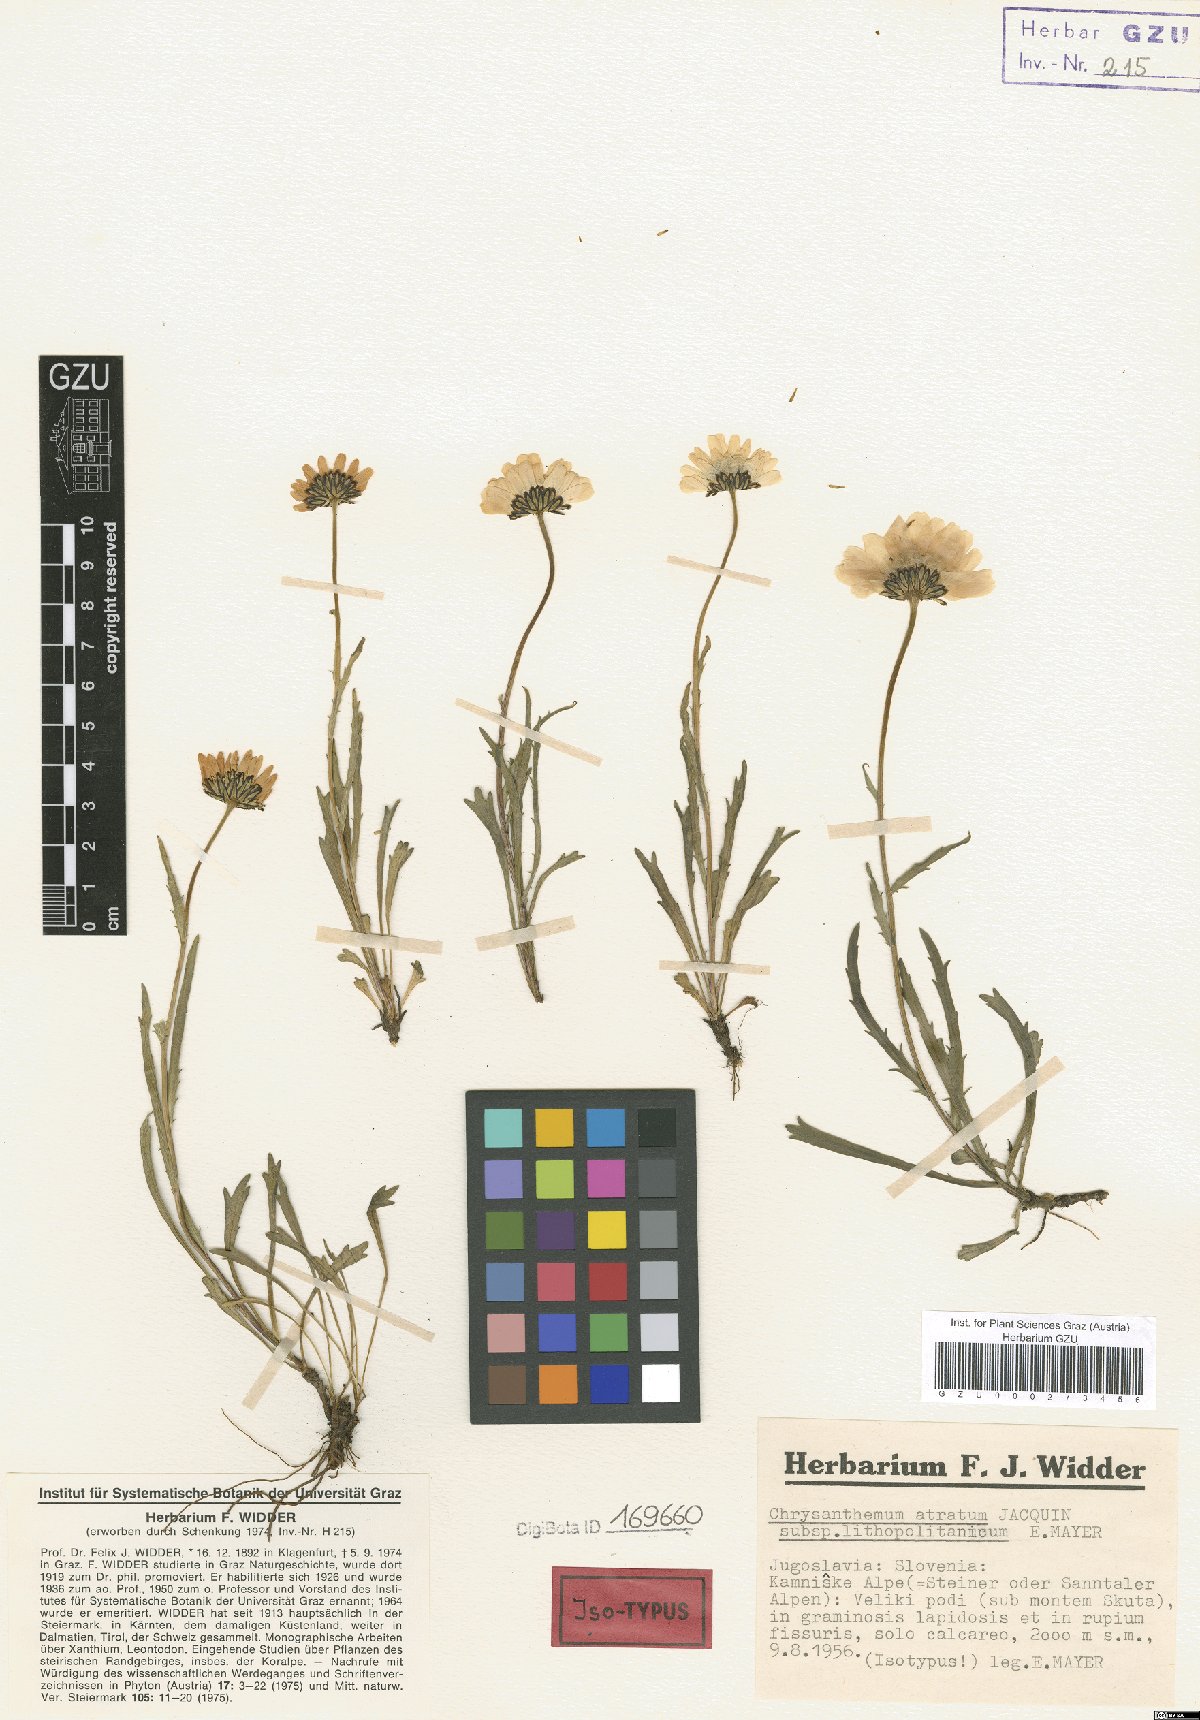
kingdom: Plantae
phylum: Tracheophyta
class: Magnoliopsida
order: Asterales
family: Asteraceae
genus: Leucanthemum
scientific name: Leucanthemum lithopolitanicum
